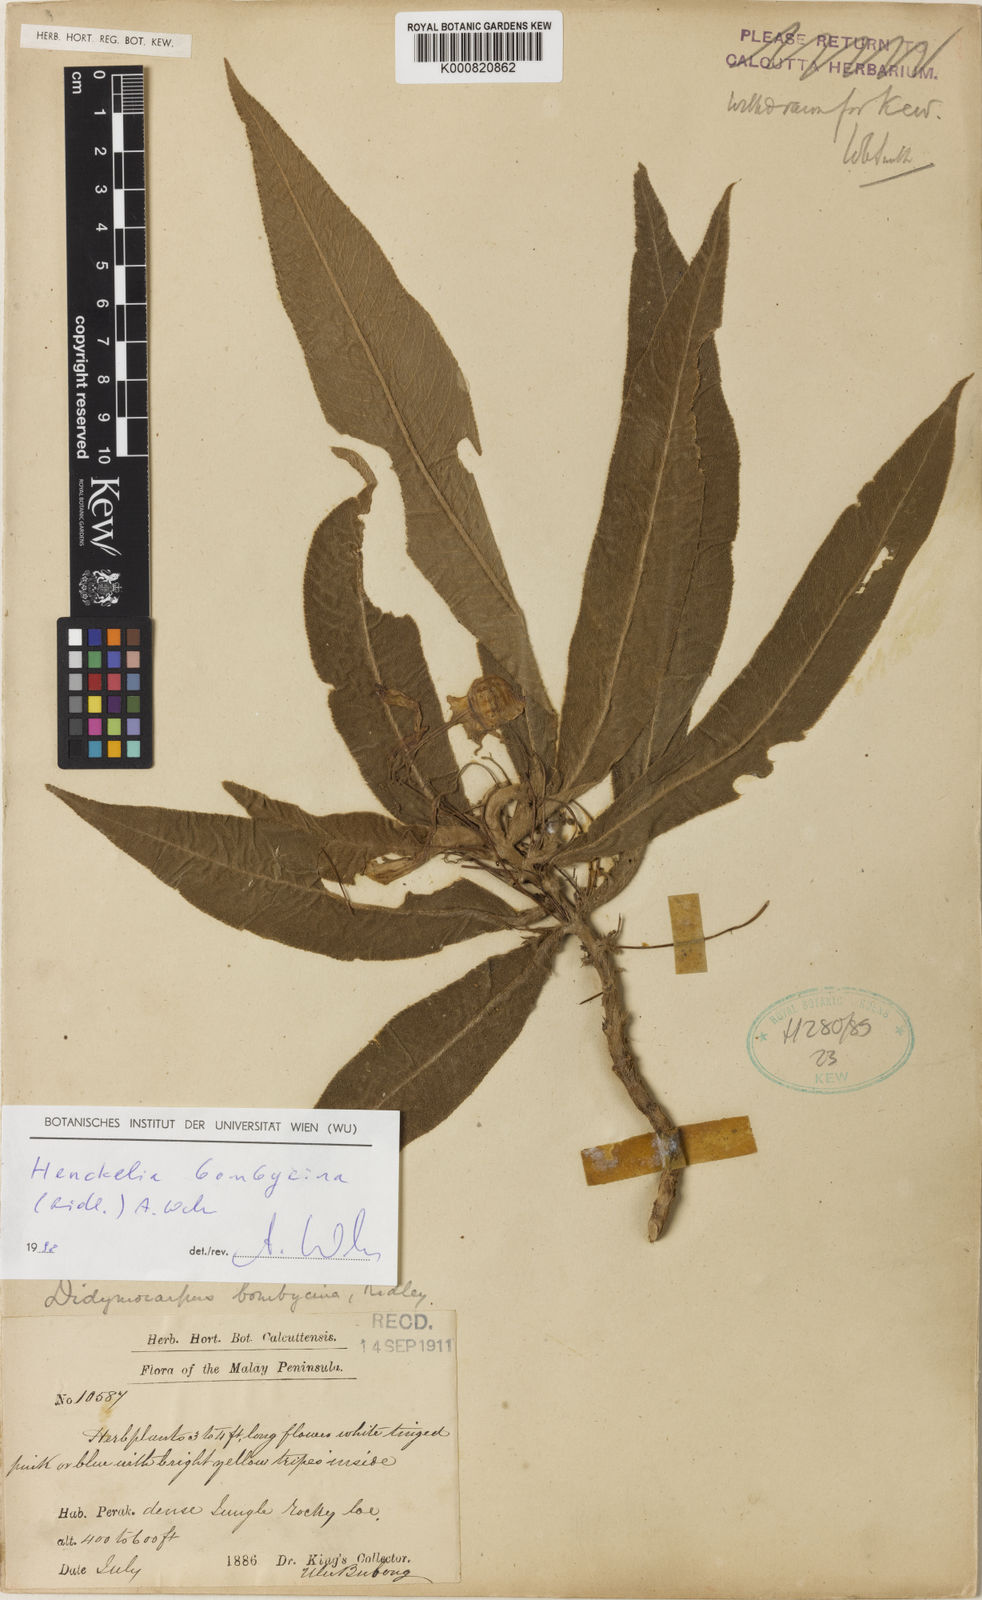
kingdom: Plantae
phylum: Tracheophyta
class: Magnoliopsida
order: Lamiales
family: Gesneriaceae
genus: Codonoboea
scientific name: Codonoboea bombycina
